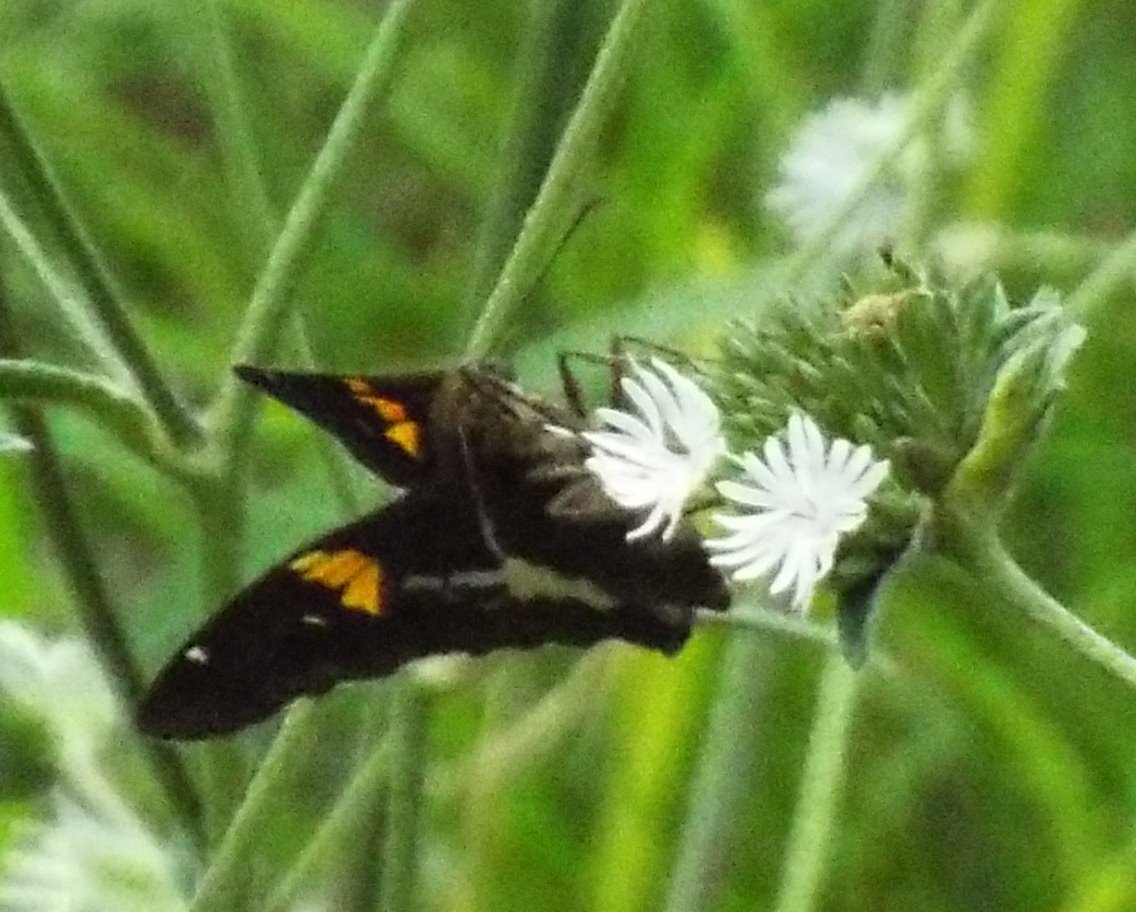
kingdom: Animalia
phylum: Arthropoda
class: Insecta
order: Lepidoptera
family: Hesperiidae
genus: Epargyreus
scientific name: Epargyreus clarus
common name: Silver-spotted Skipper
